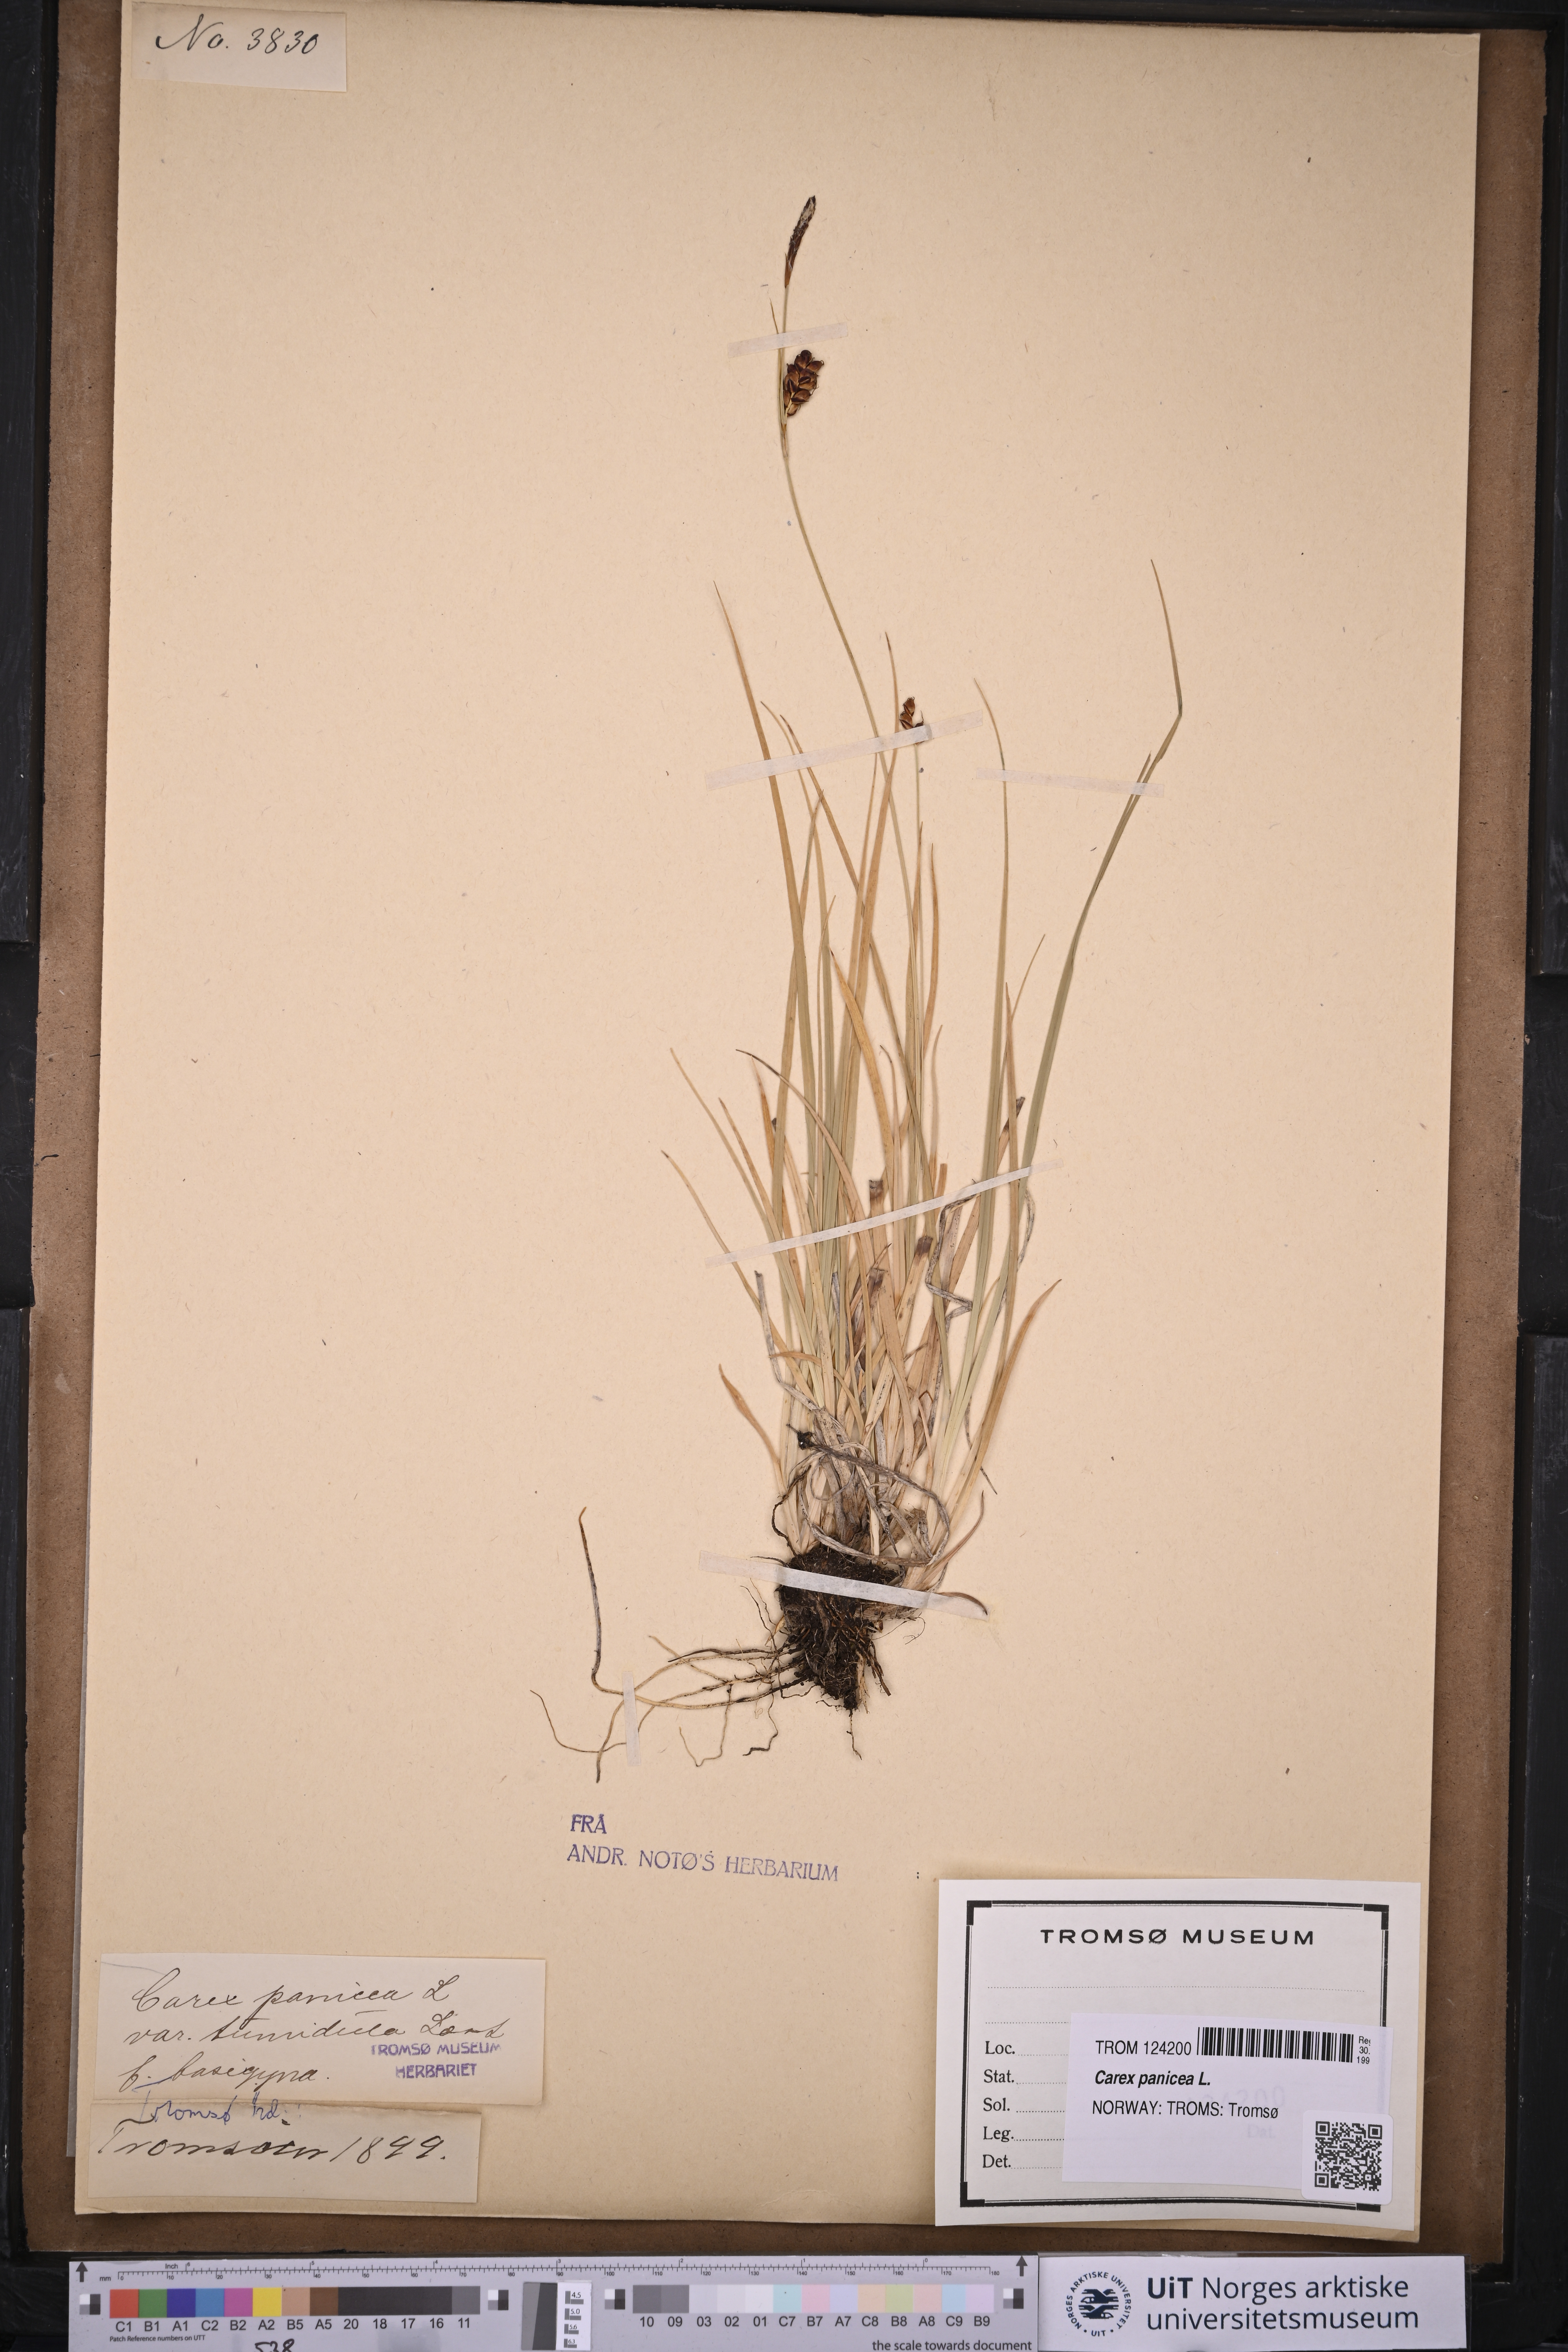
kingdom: Plantae
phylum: Tracheophyta
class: Liliopsida
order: Poales
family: Cyperaceae
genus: Carex
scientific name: Carex panicea
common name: Carnation sedge
